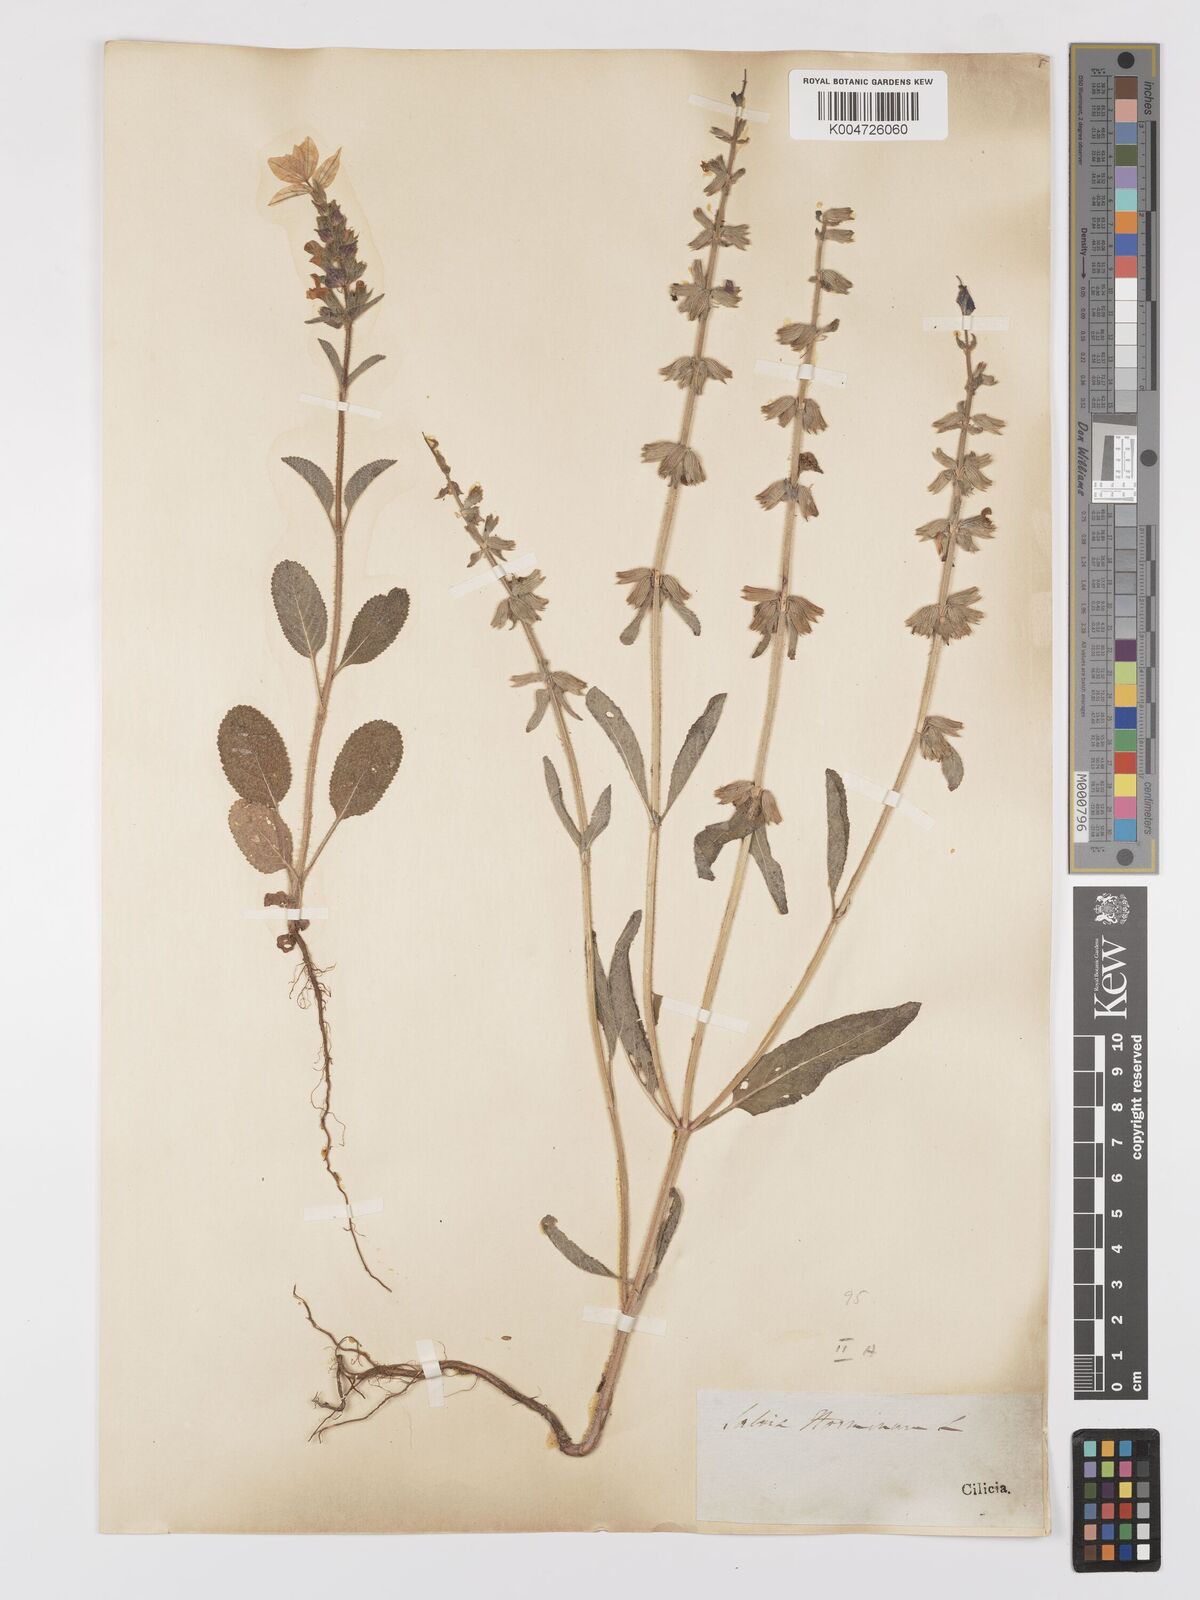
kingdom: Plantae
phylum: Tracheophyta
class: Magnoliopsida
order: Lamiales
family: Lamiaceae
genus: Salvia
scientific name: Salvia viridis
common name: Annual clary
